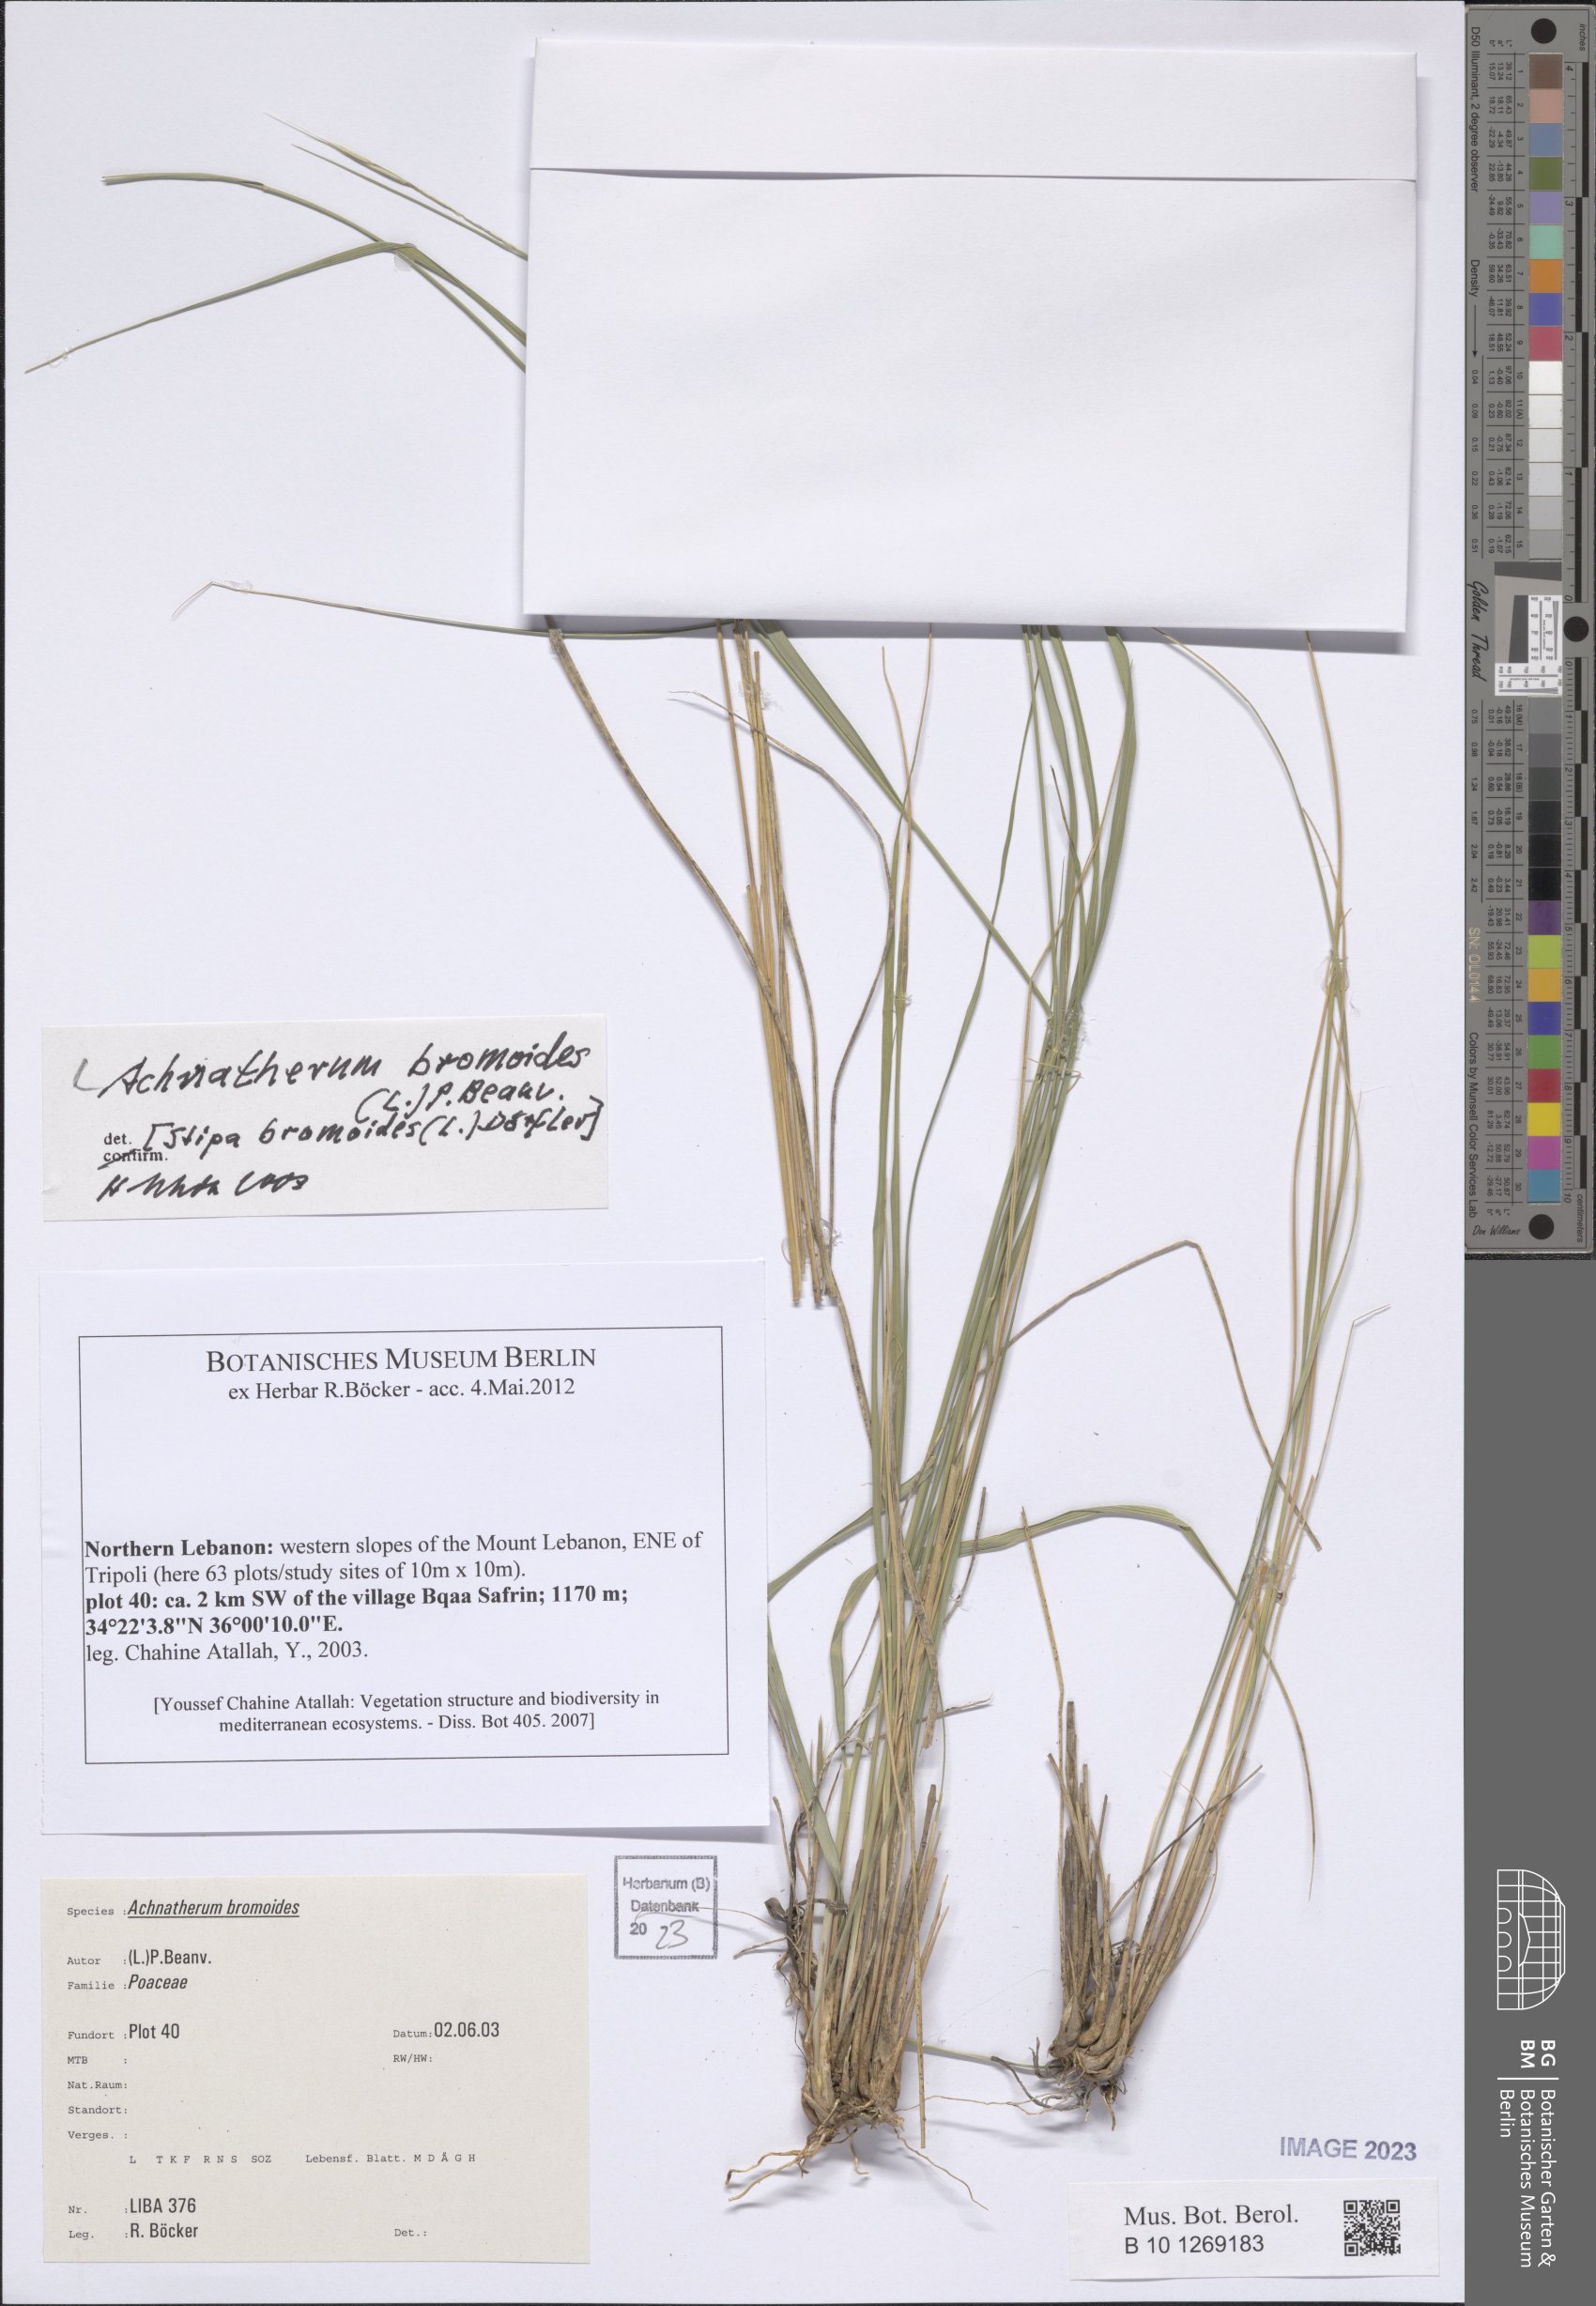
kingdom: Plantae
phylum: Tracheophyta
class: Liliopsida
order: Poales
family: Poaceae
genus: Achnatherum
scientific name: Achnatherum bromoides
